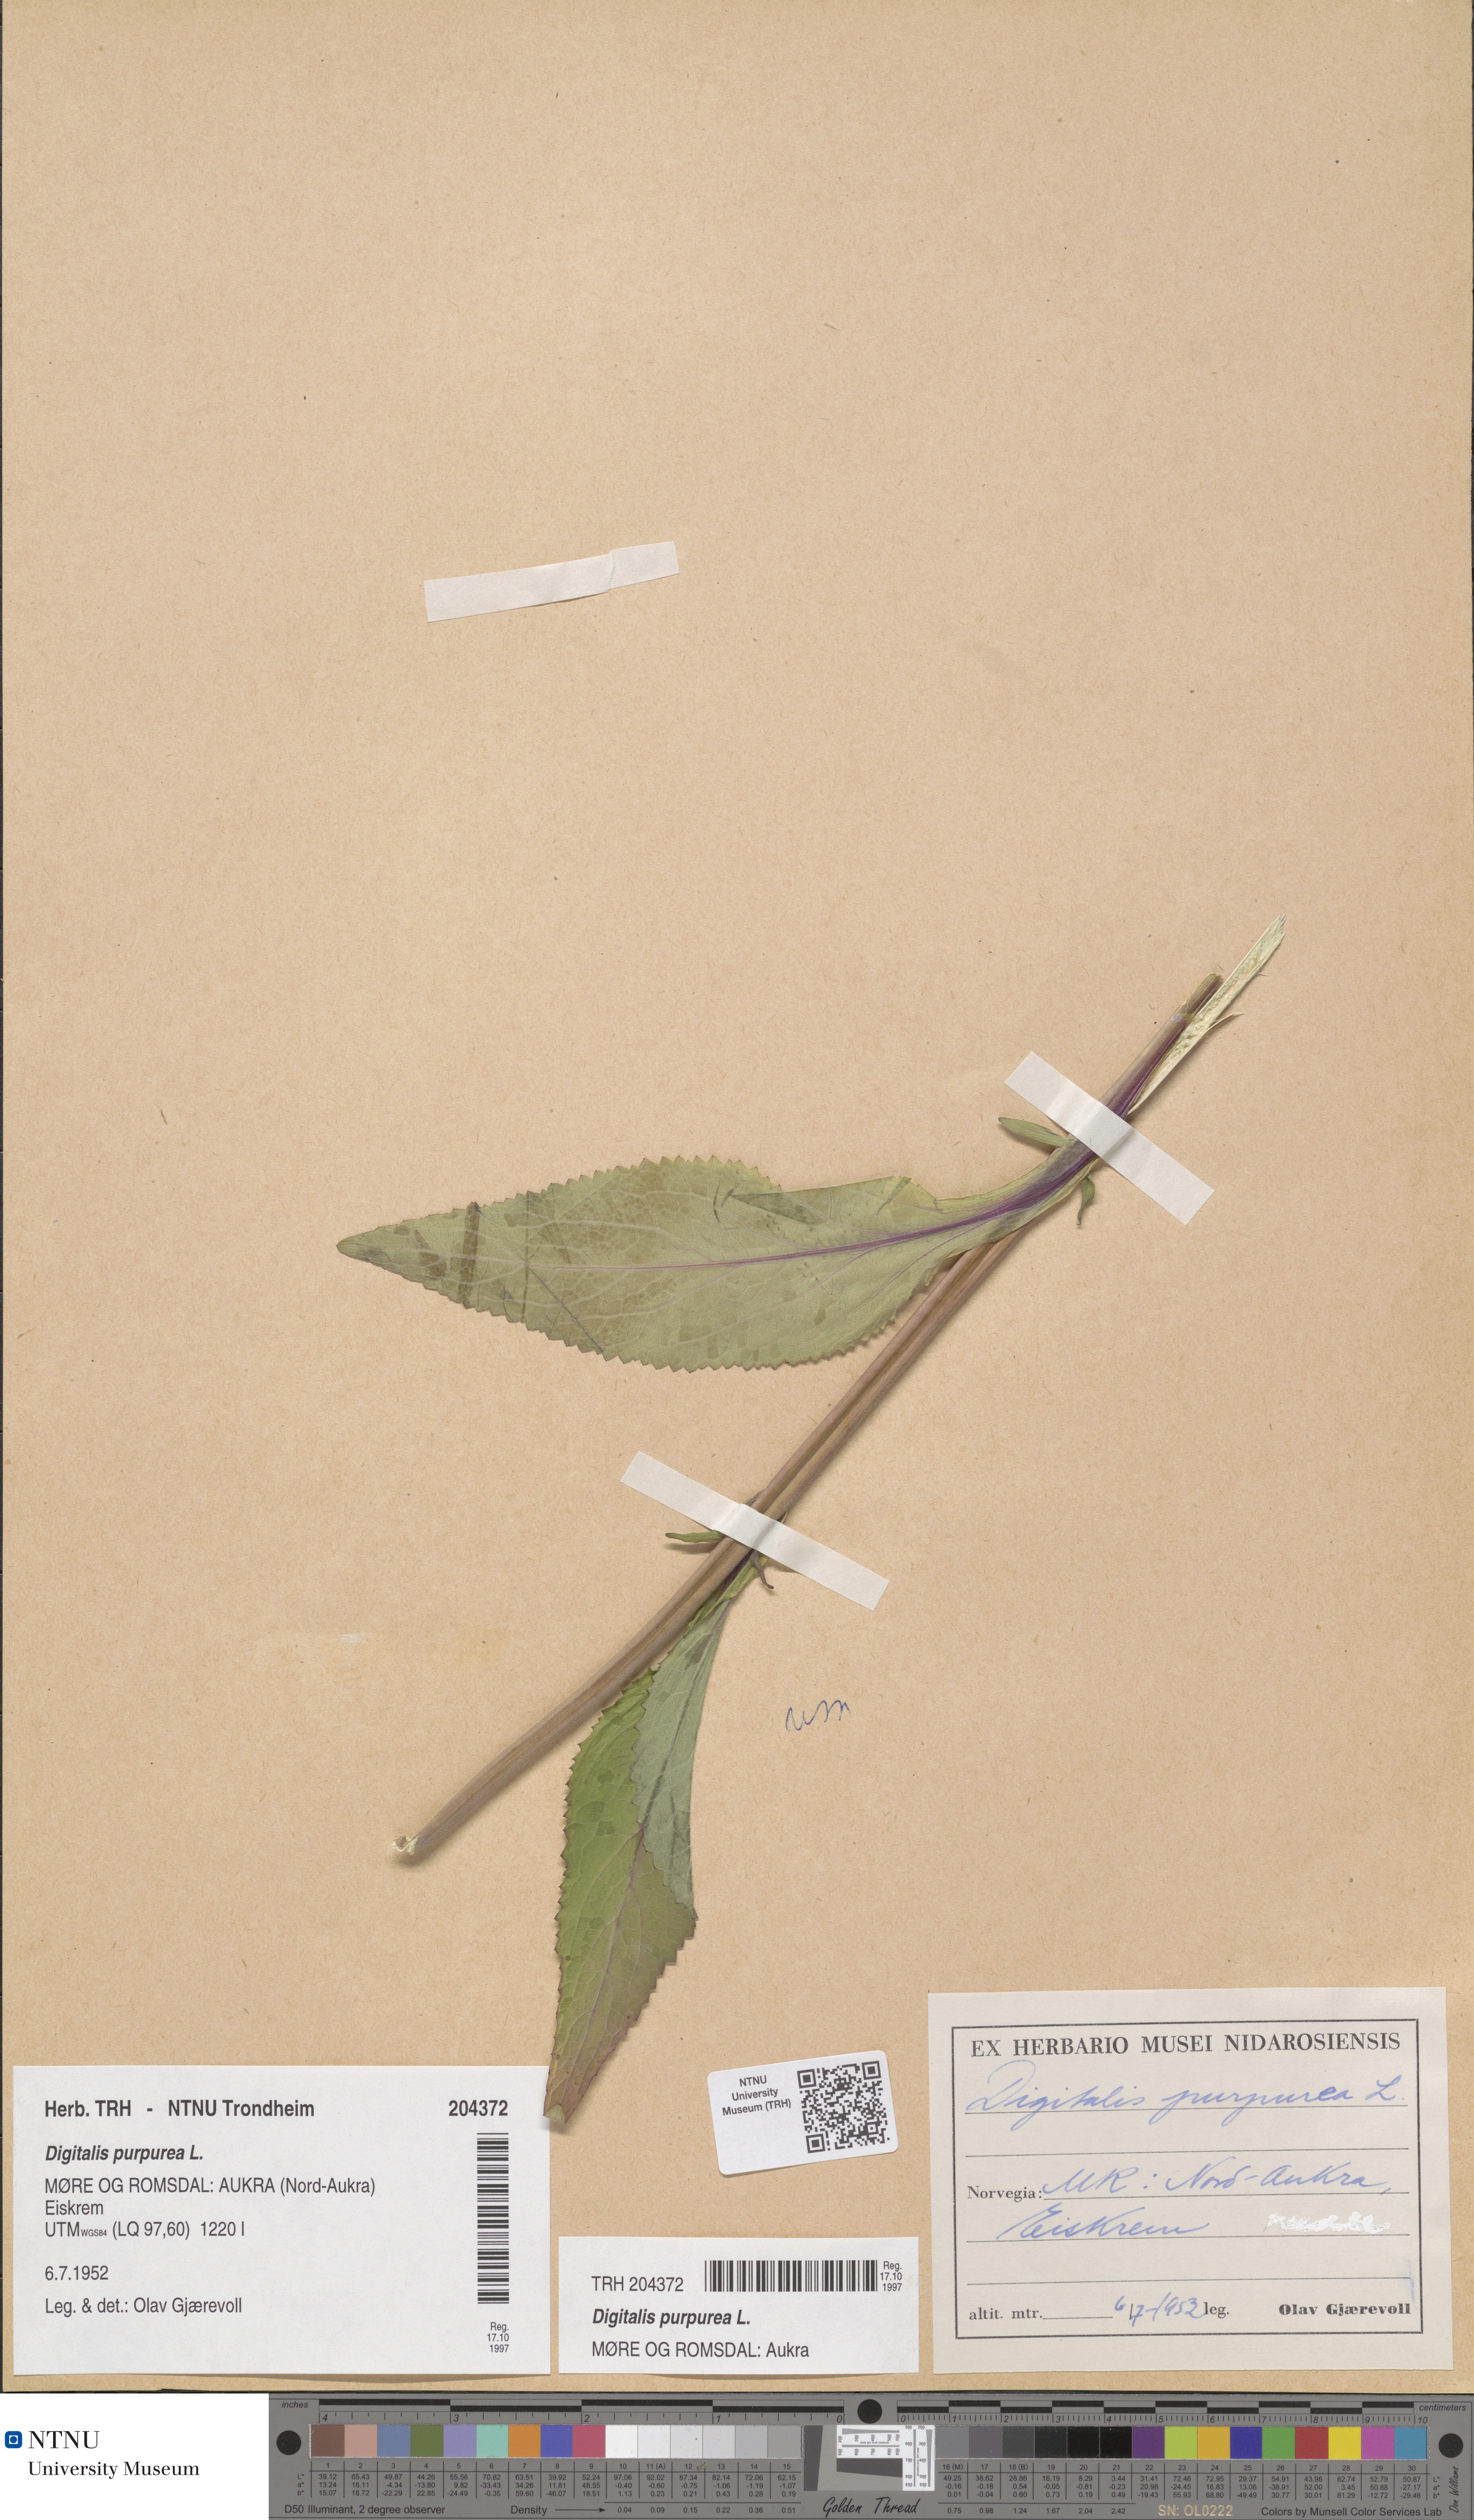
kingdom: Plantae
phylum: Tracheophyta
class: Magnoliopsida
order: Lamiales
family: Plantaginaceae
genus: Digitalis
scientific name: Digitalis purpurea
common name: Foxglove
